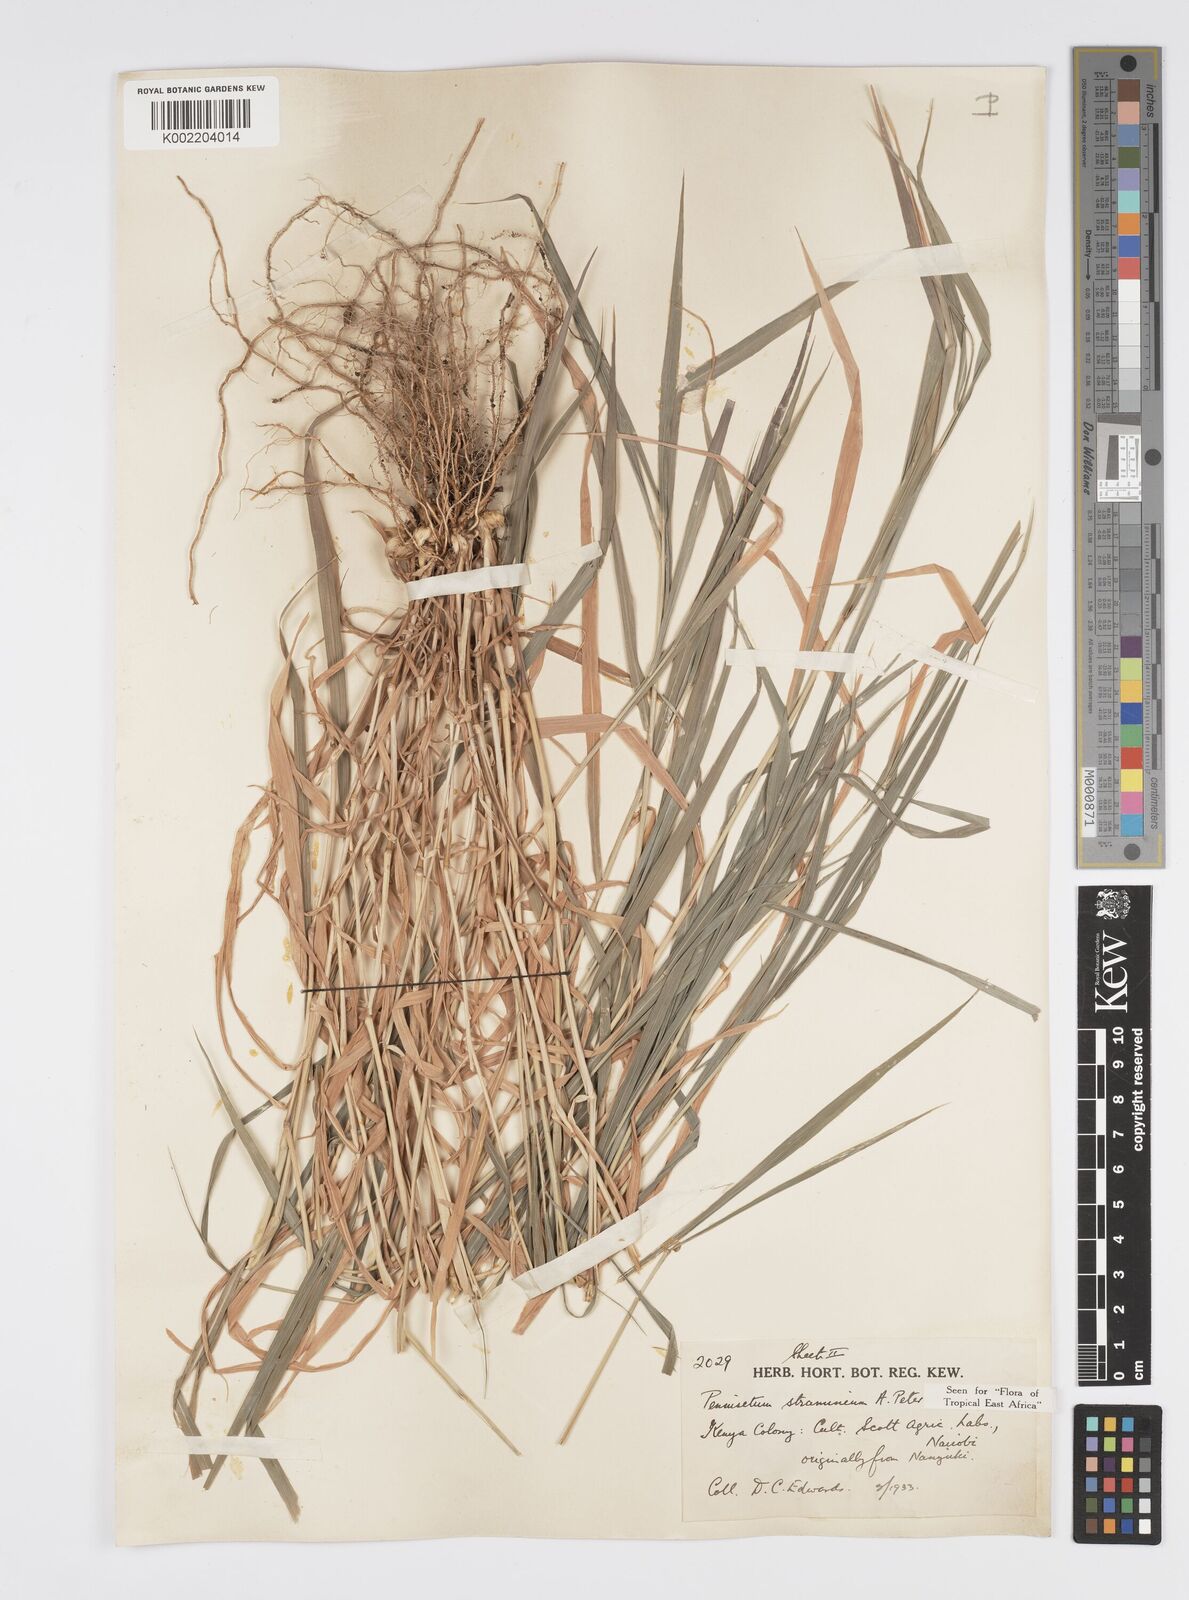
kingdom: Plantae
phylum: Tracheophyta
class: Liliopsida
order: Poales
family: Poaceae
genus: Cenchrus
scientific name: Cenchrus stramineus
